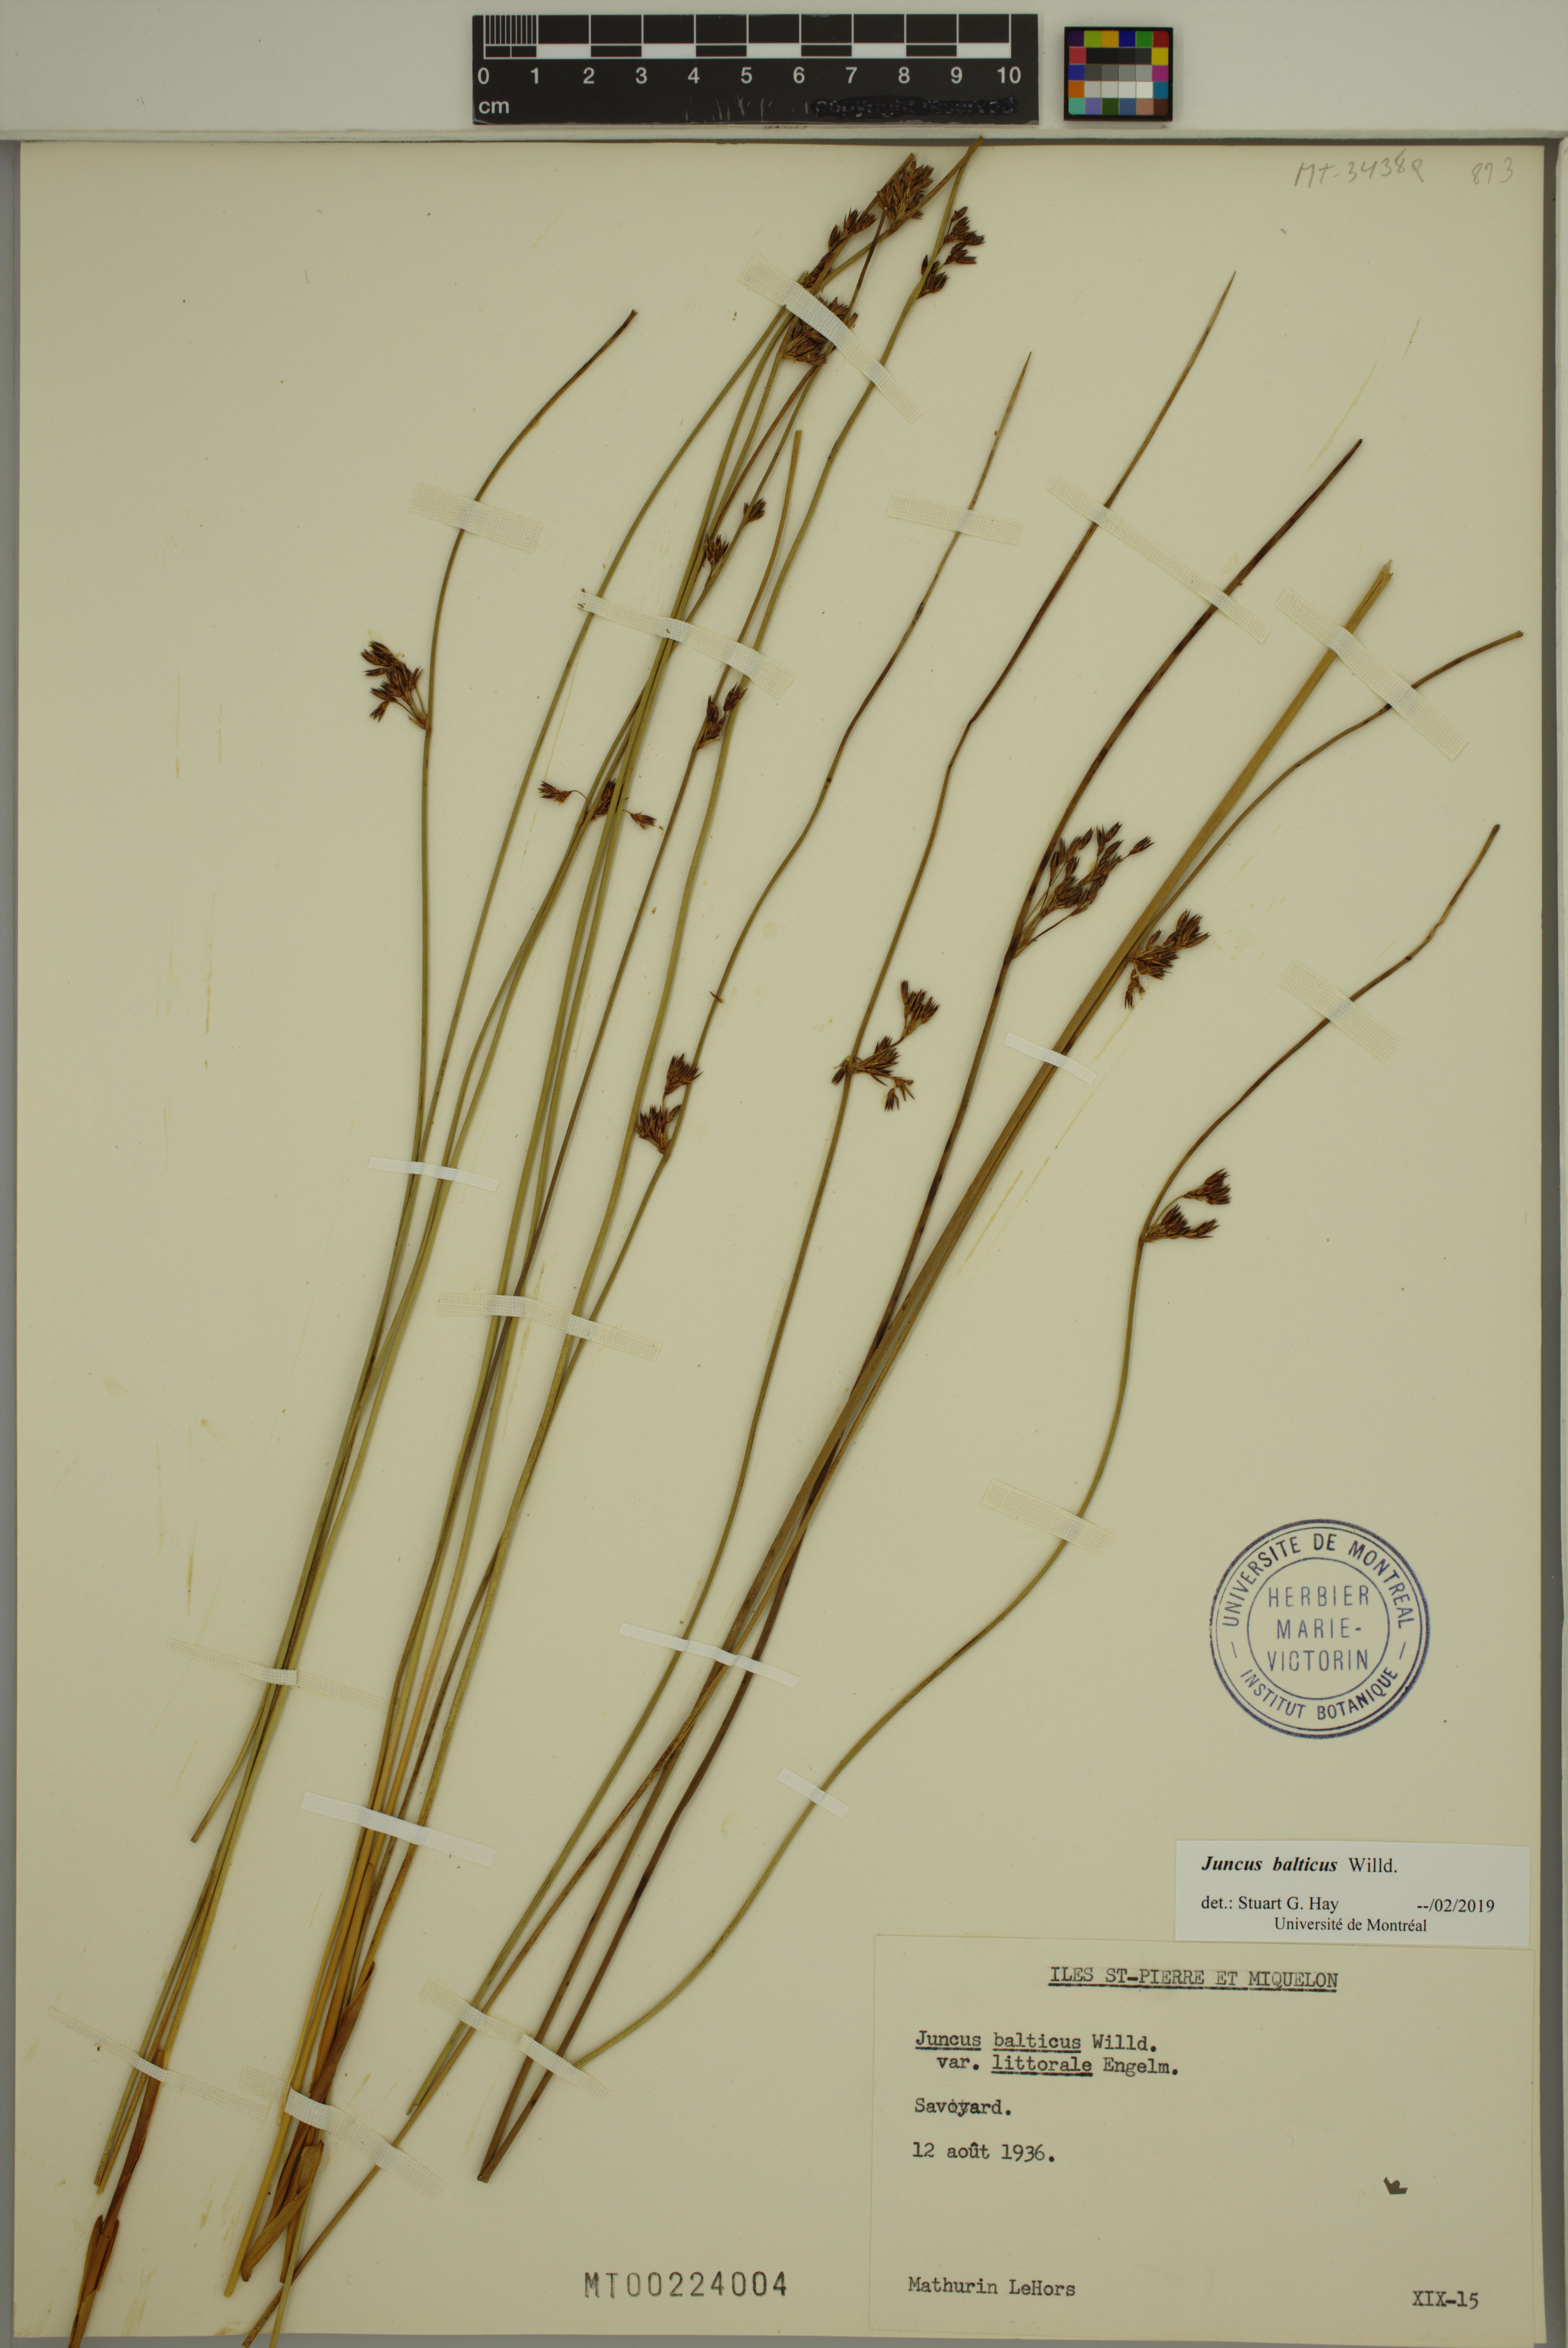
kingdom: Plantae
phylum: Tracheophyta
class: Liliopsida
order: Poales
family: Juncaceae
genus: Juncus
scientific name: Juncus balticus
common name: Baltic rush
